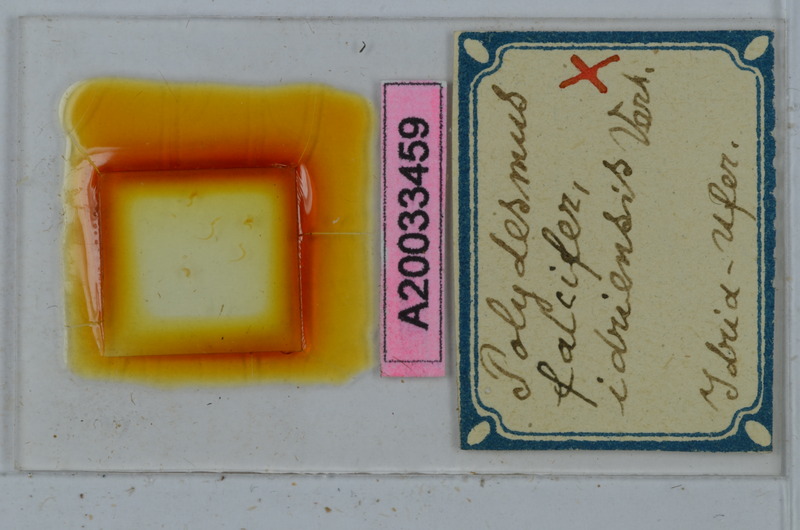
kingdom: Animalia
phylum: Arthropoda
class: Diplopoda
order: Polydesmida
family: Polydesmidae
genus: Polydesmus
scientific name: Polydesmus falcifer
